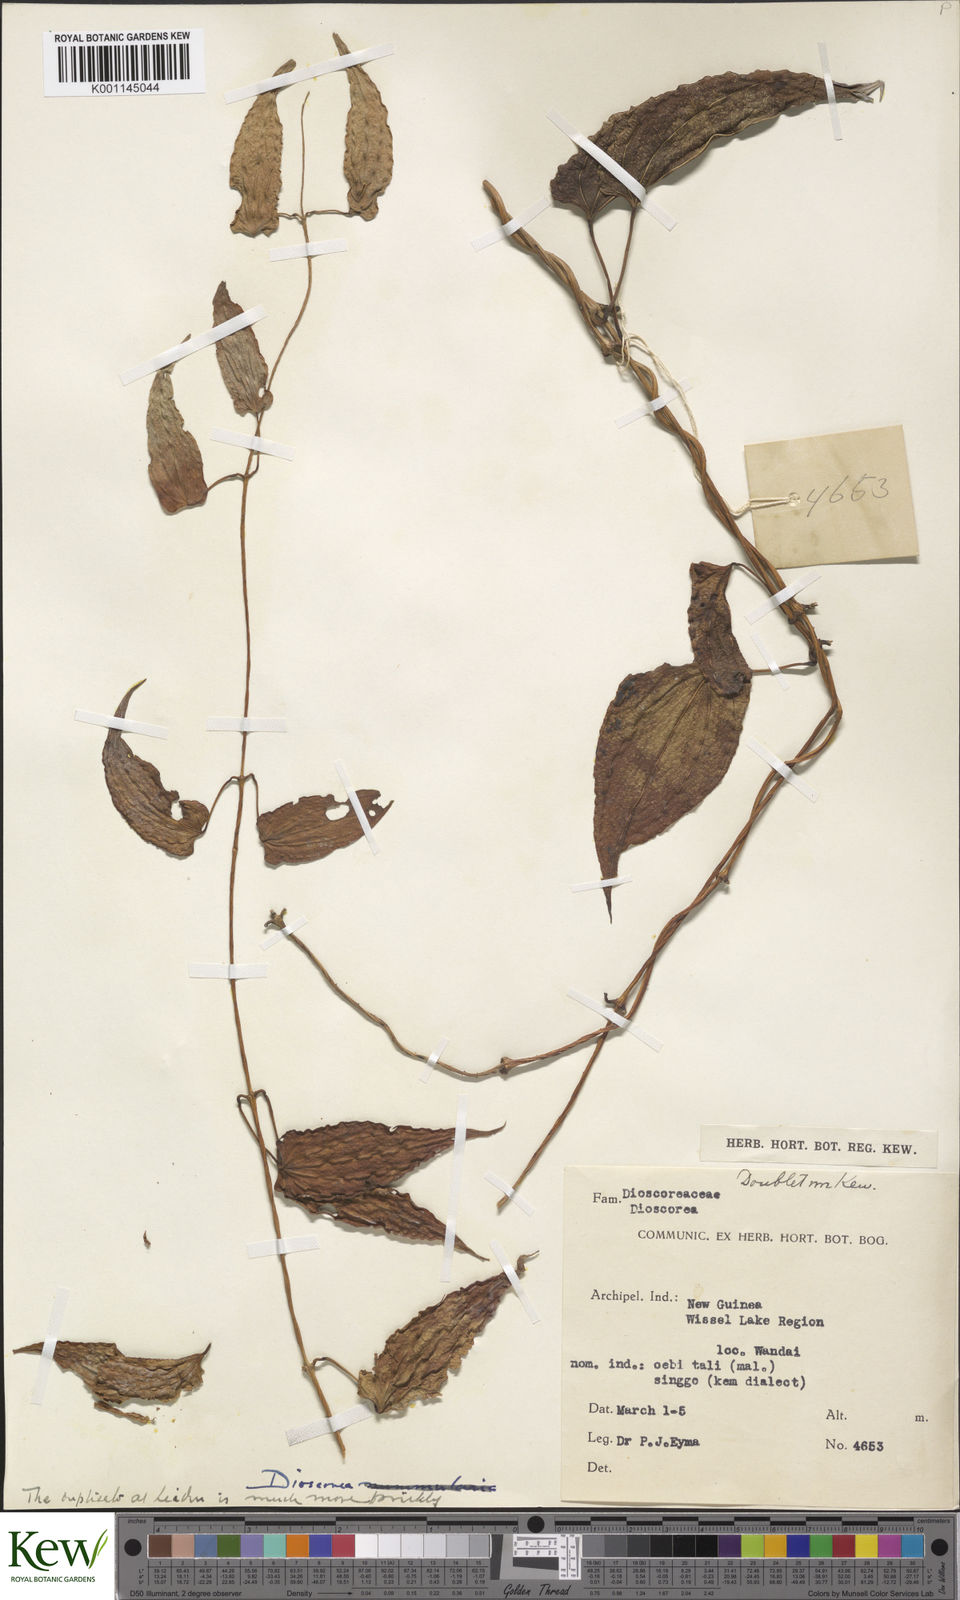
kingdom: Plantae
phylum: Tracheophyta
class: Liliopsida
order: Dioscoreales
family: Dioscoreaceae
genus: Dioscorea
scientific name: Dioscorea
